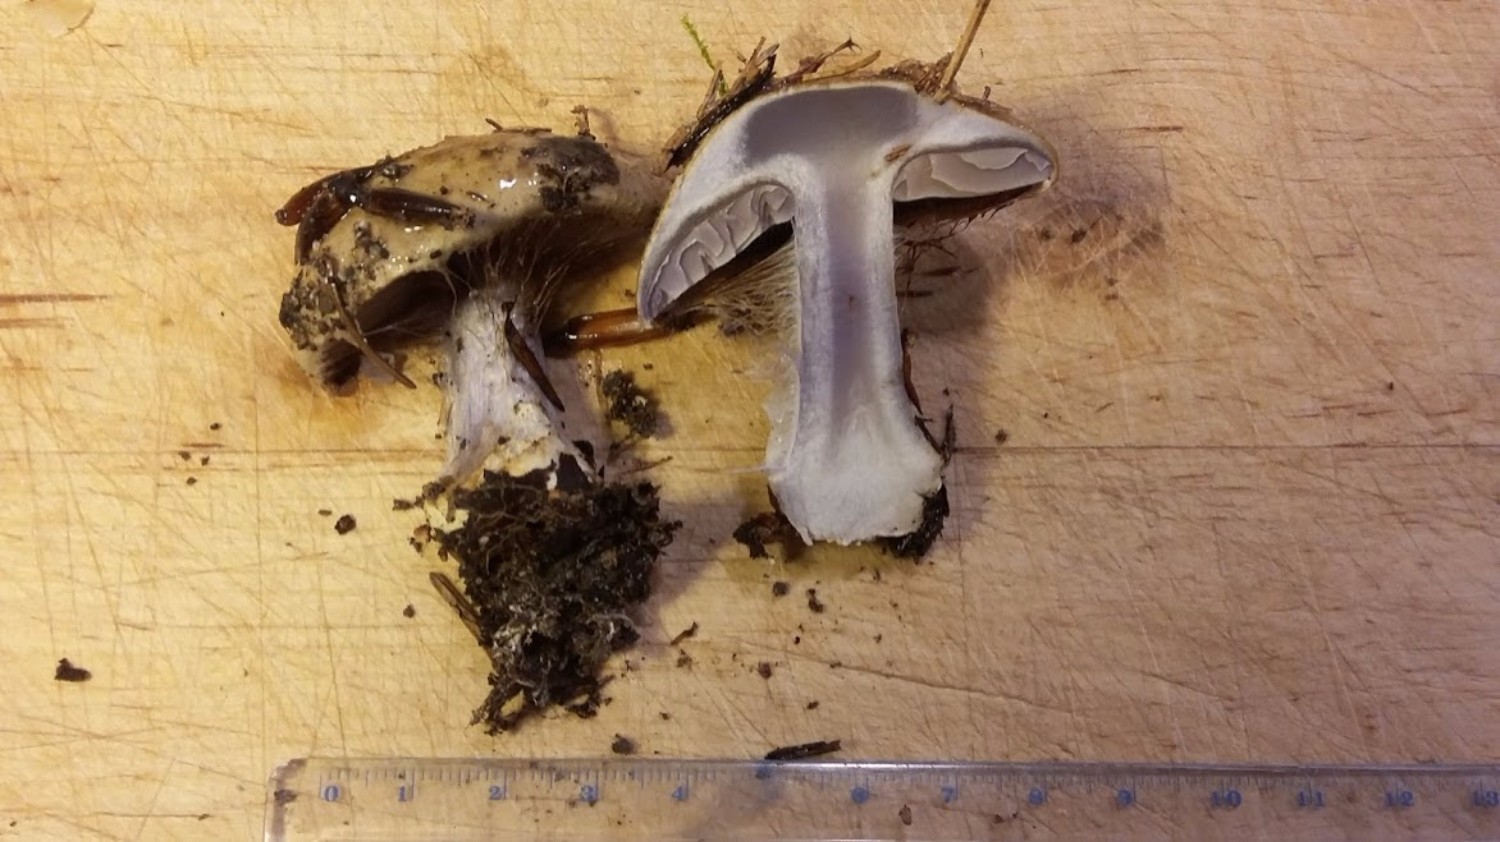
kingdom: Fungi
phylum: Basidiomycota
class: Agaricomycetes
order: Agaricales
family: Cortinariaceae
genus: Cortinarius
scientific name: Cortinarius anserinus
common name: bøge-slørhat
